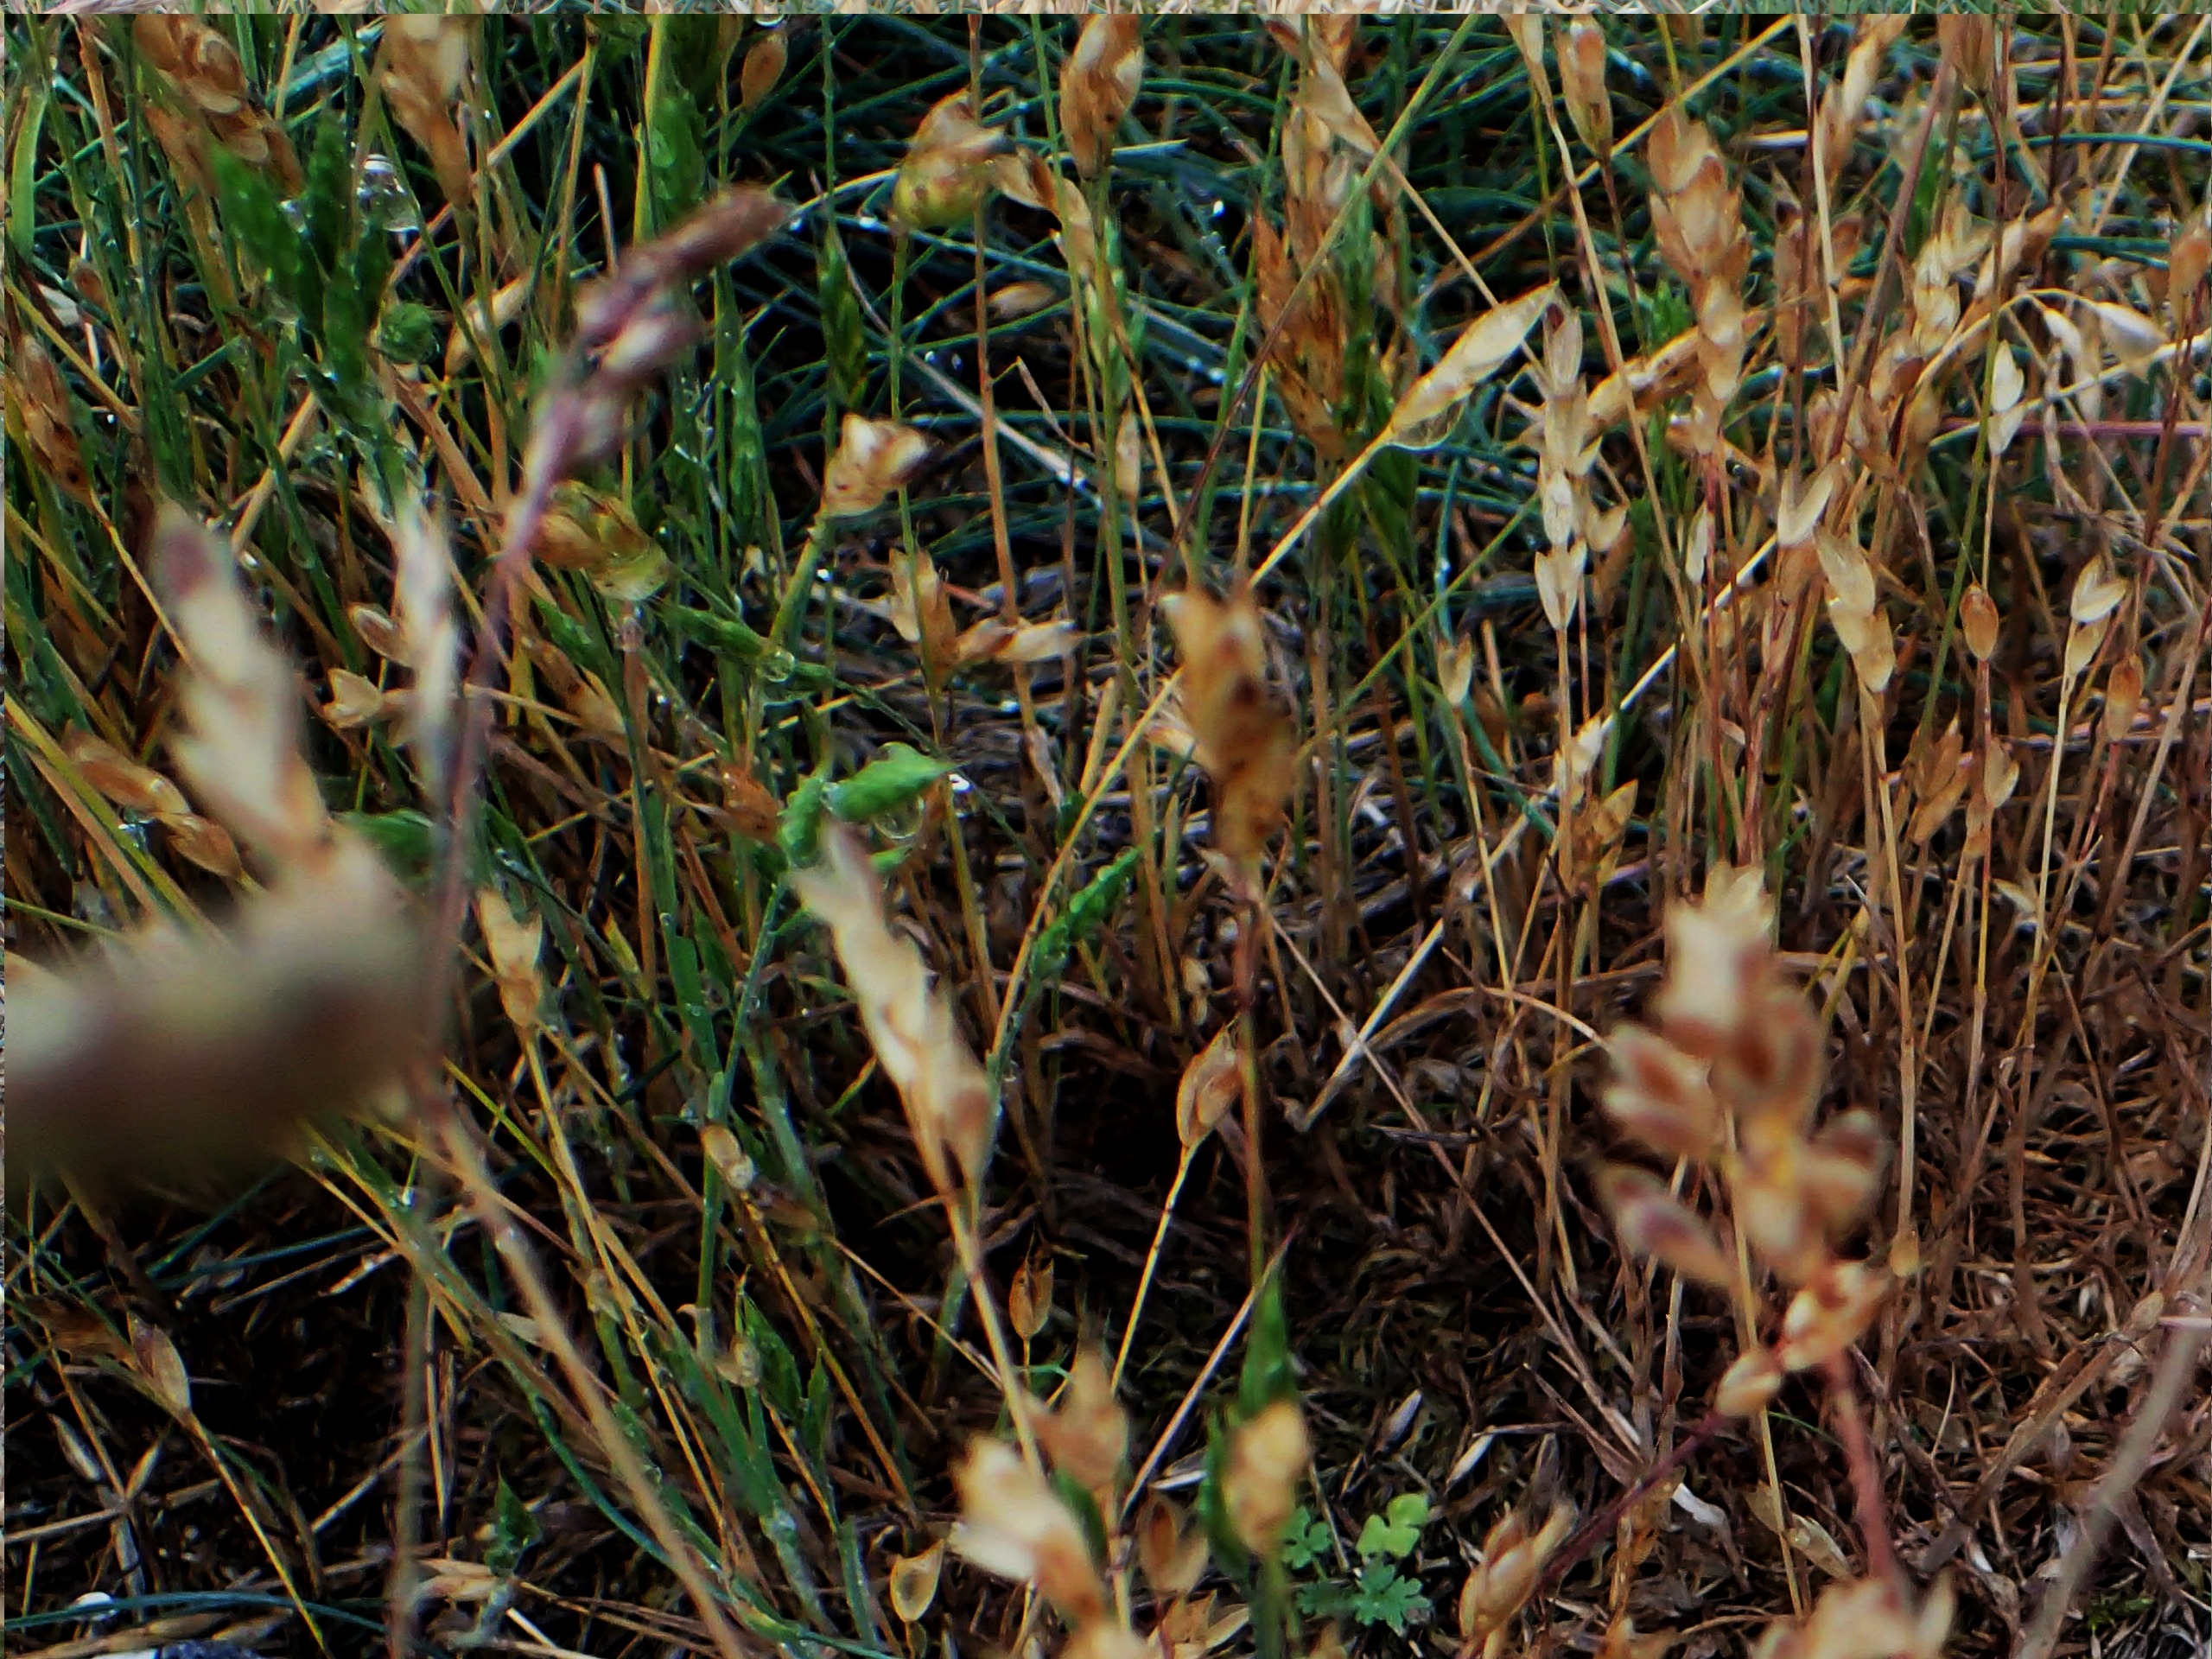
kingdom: Plantae
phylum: Tracheophyta
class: Liliopsida
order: Poales
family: Poaceae
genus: Aira
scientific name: Aira praecox
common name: Tidlig dværgbunke
